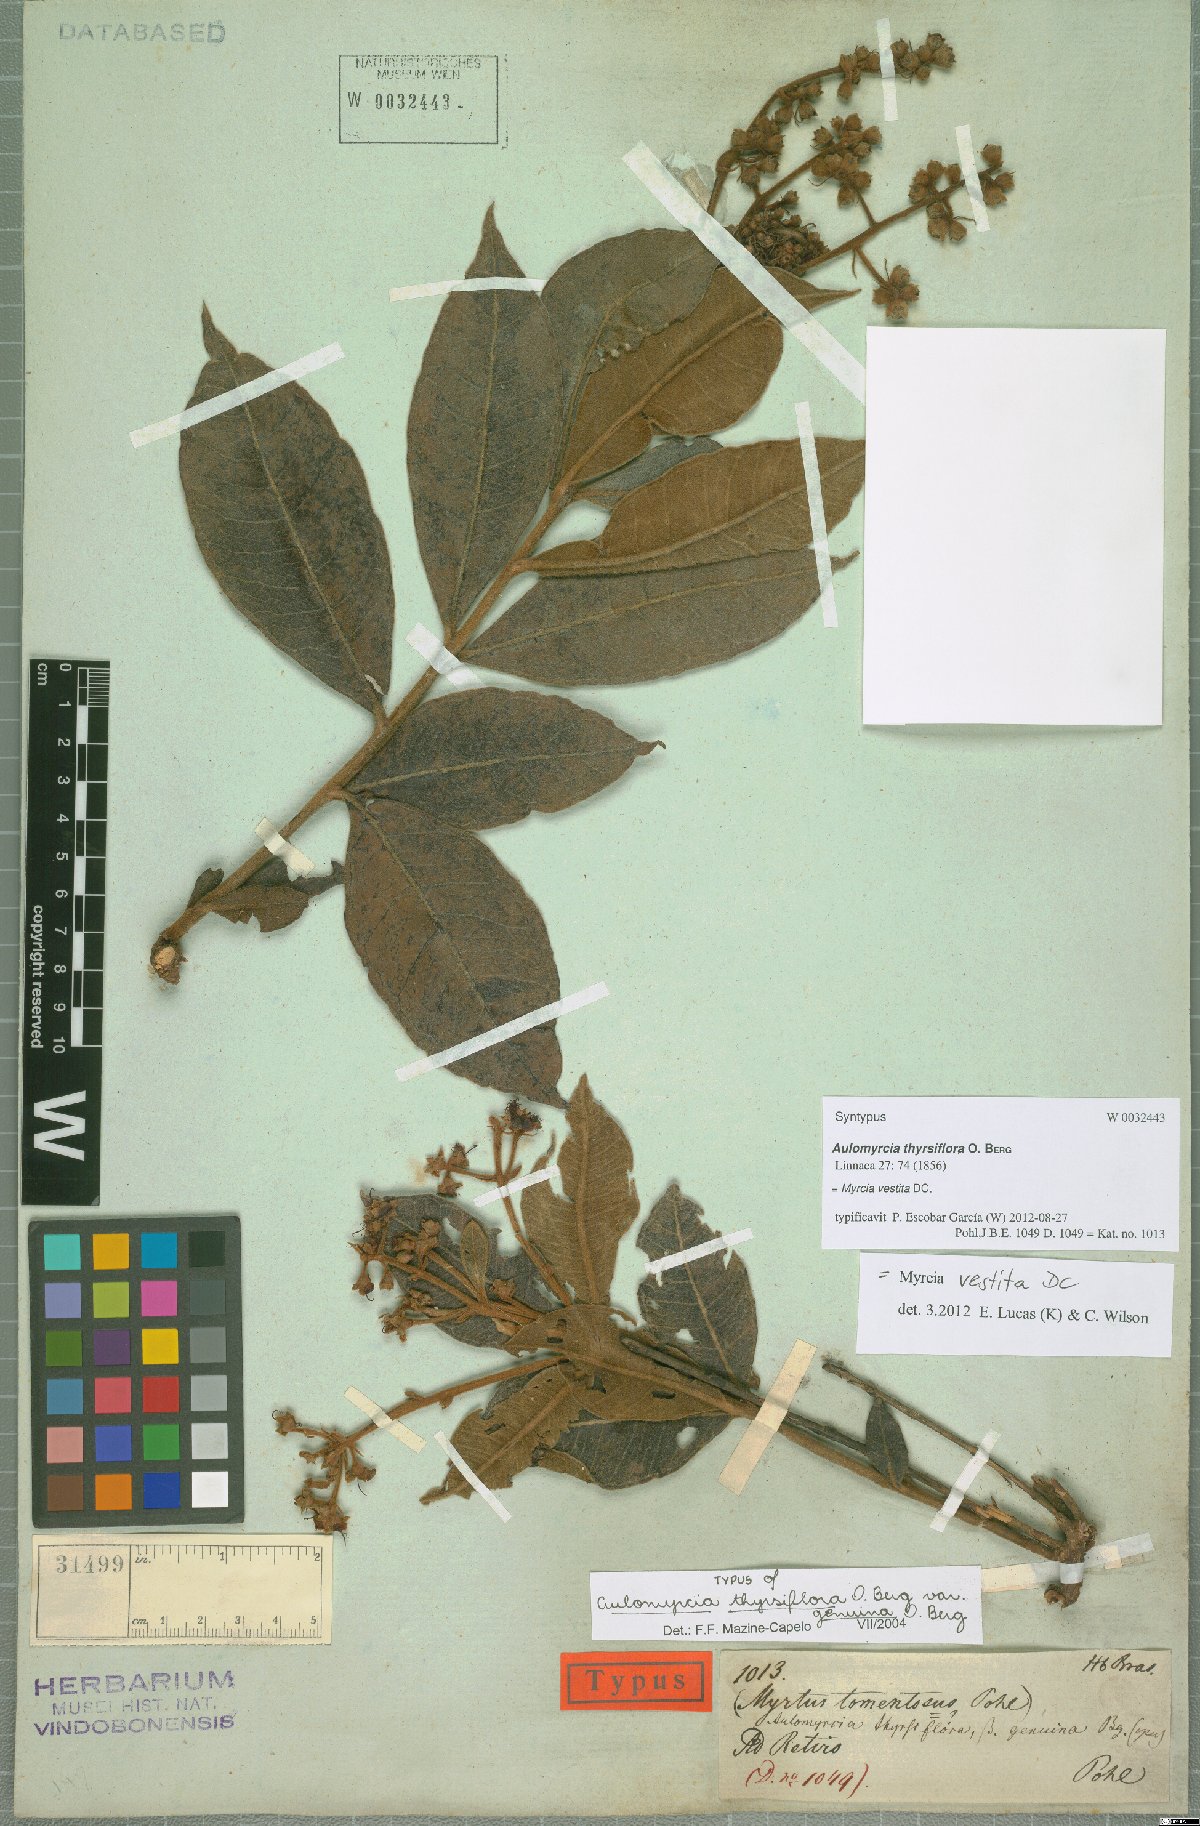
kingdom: Plantae
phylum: Tracheophyta
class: Magnoliopsida
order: Myrtales
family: Myrtaceae
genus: Myrcia
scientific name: Myrcia vestita
